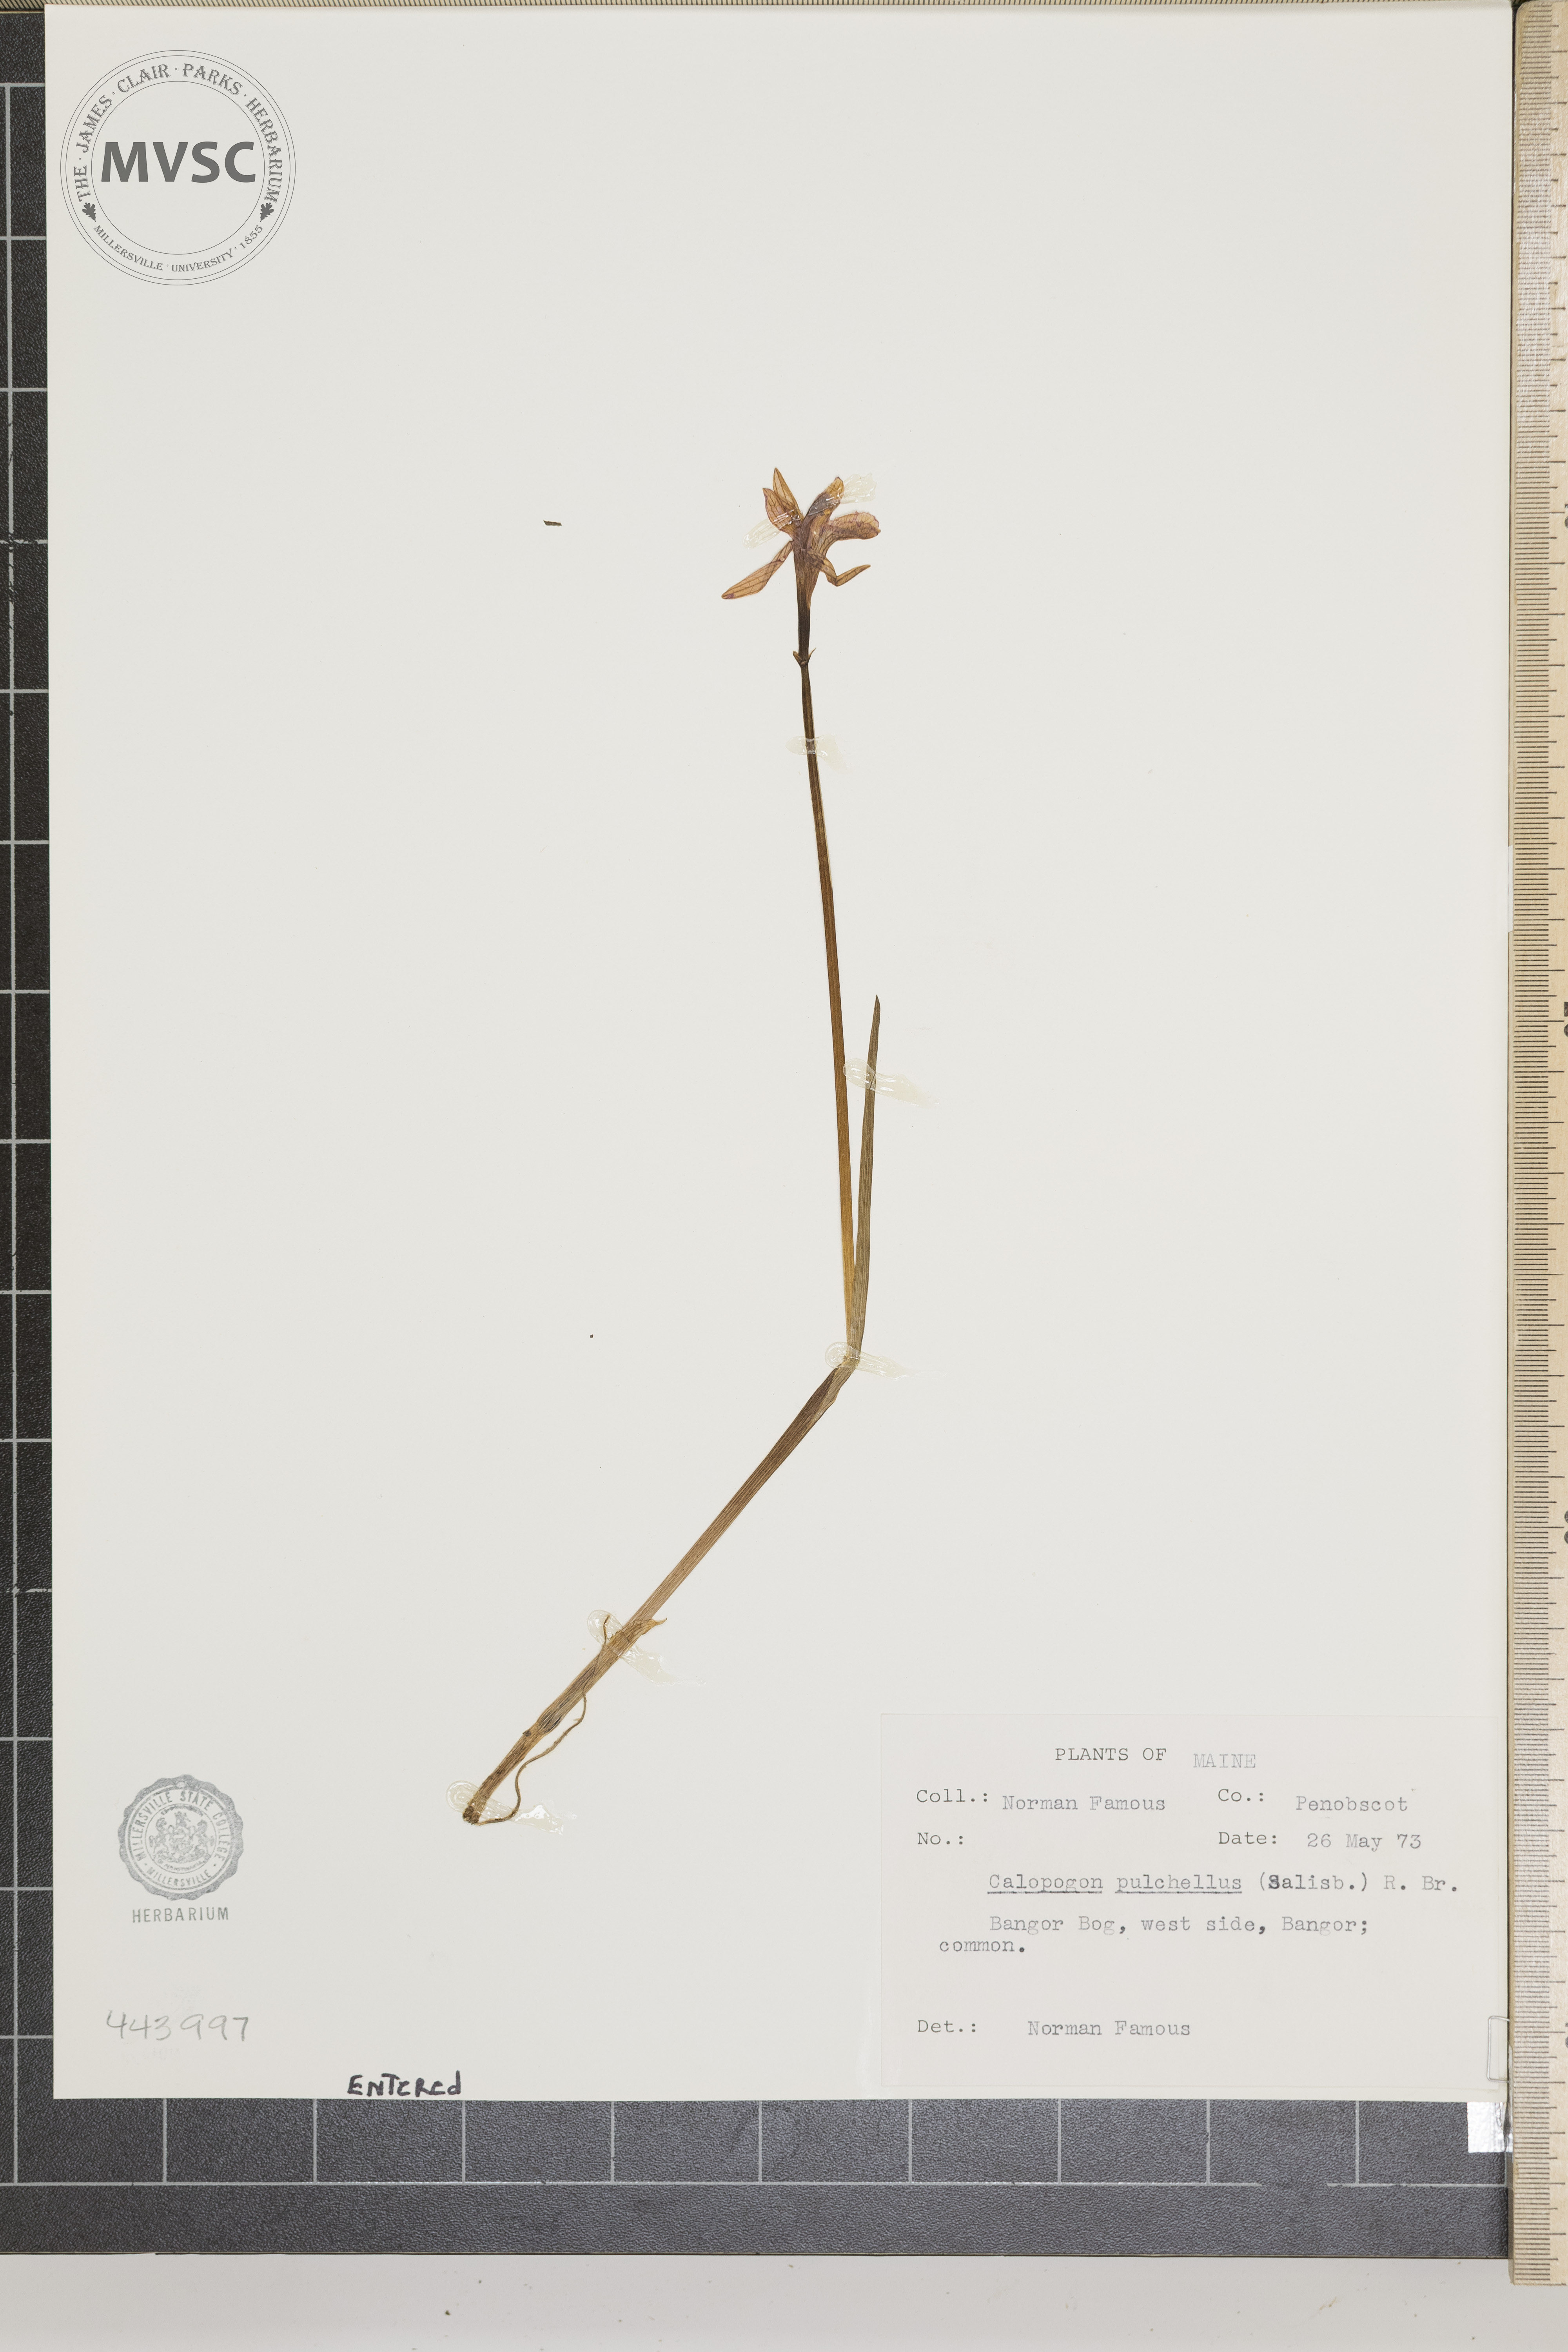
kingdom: Plantae
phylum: Tracheophyta
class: Liliopsida
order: Asparagales
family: Orchidaceae
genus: Calopogon
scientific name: Calopogon tuberosus
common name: Grass pink
